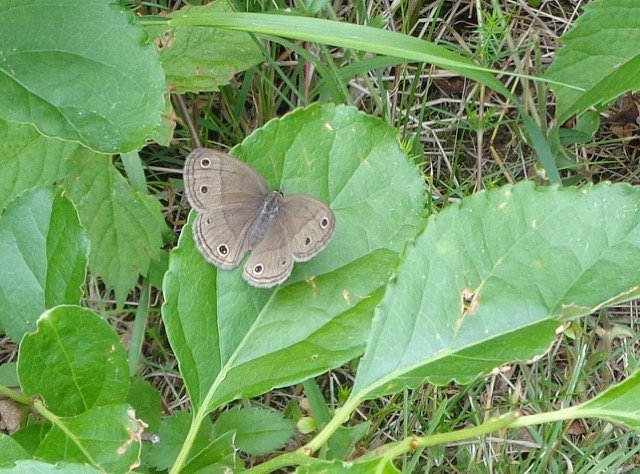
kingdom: Animalia
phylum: Arthropoda
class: Insecta
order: Lepidoptera
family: Nymphalidae
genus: Euptychia
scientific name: Euptychia cymela
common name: Little Wood Satyr
